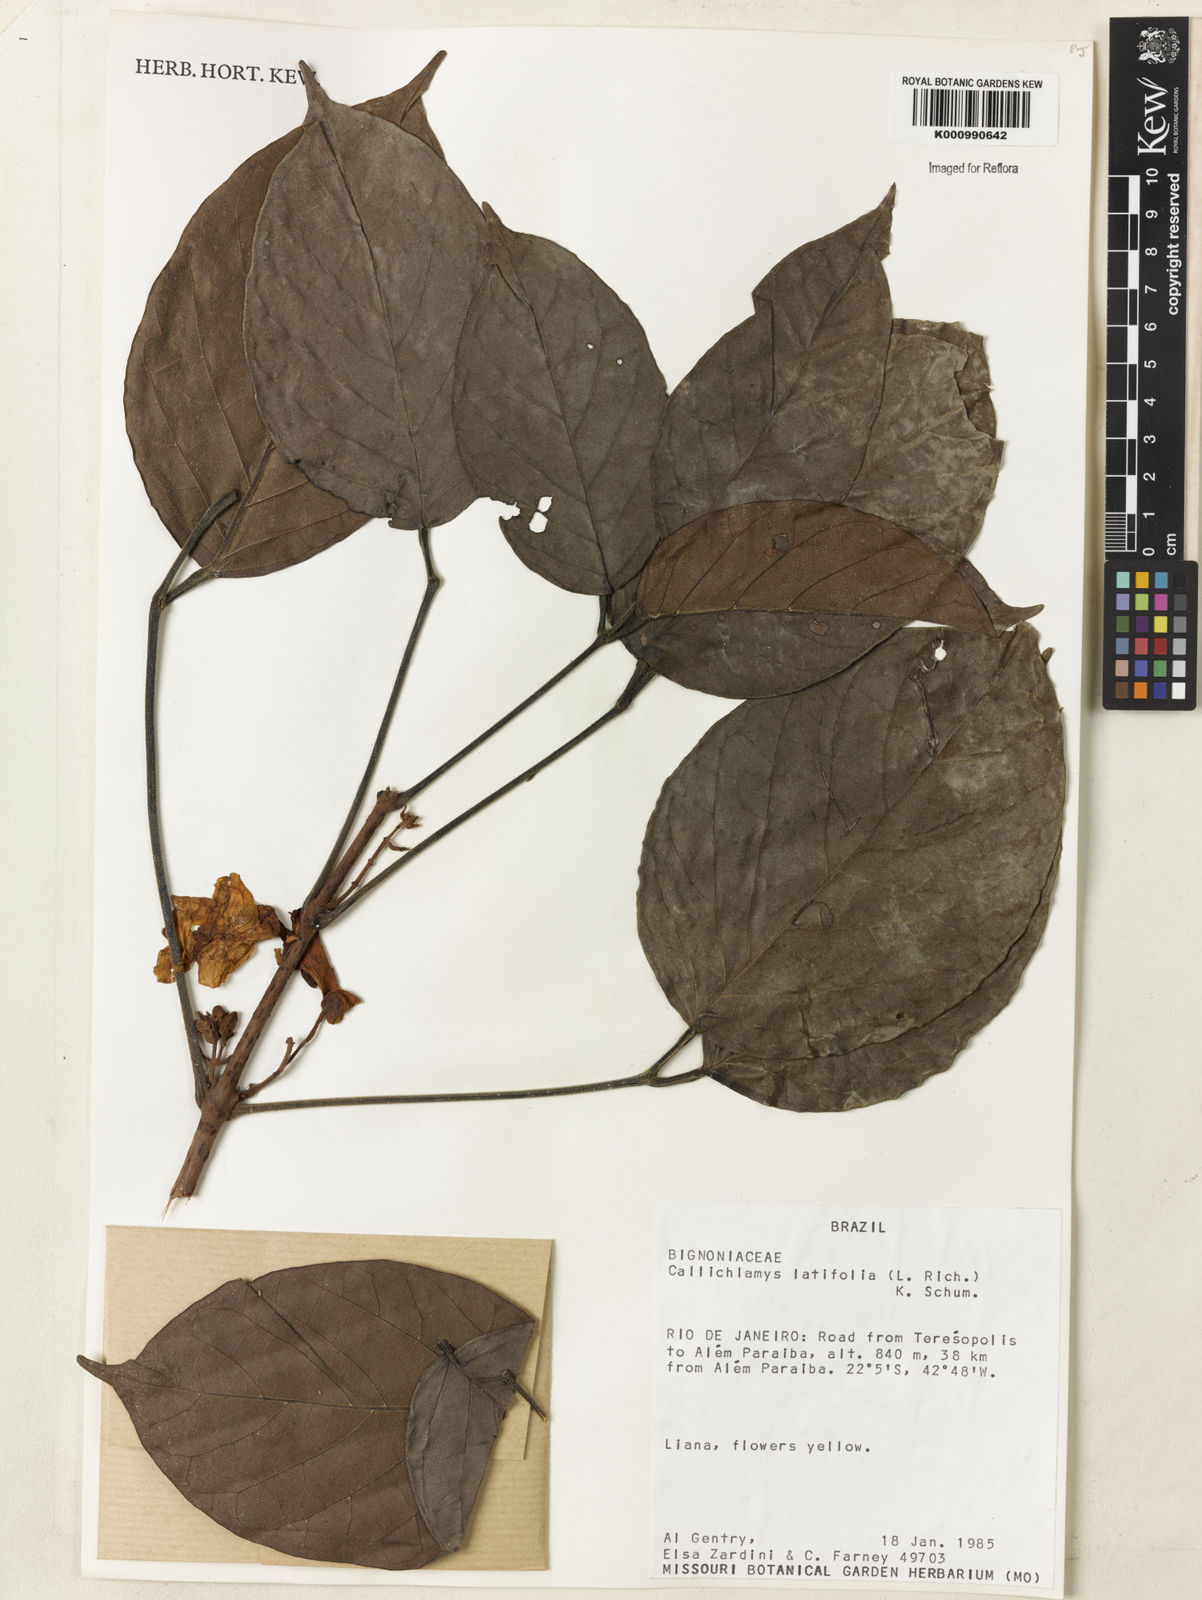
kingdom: Plantae
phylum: Tracheophyta
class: Magnoliopsida
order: Lamiales
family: Bignoniaceae
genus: Callichlamys
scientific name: Callichlamys latifolia
